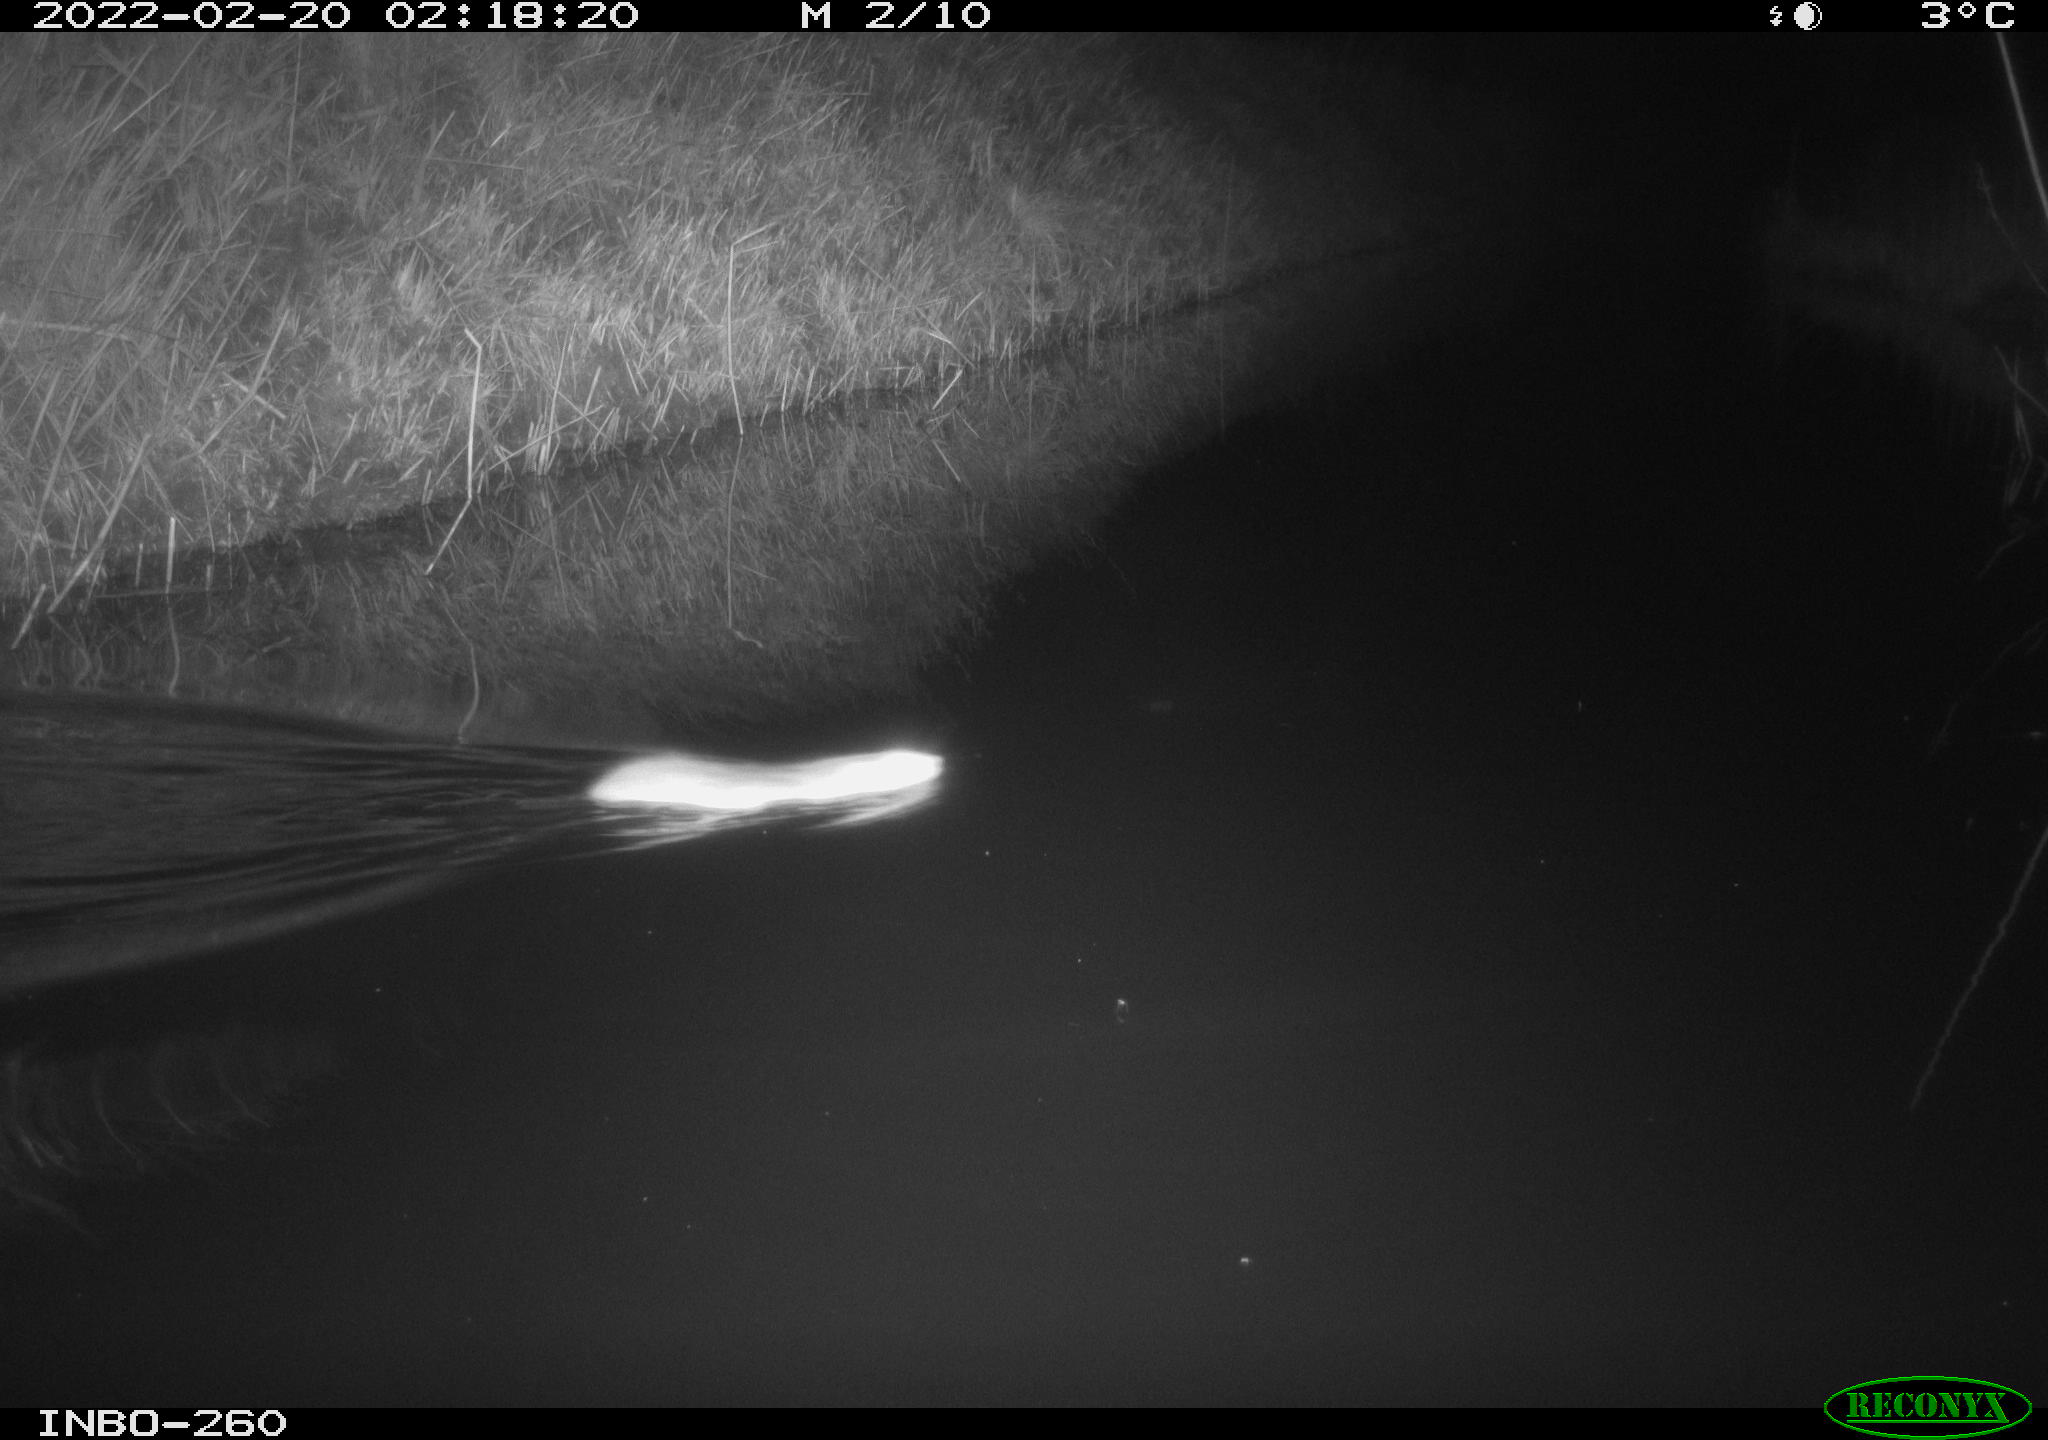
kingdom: Animalia
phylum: Chordata
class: Mammalia
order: Rodentia
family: Muridae
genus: Rattus
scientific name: Rattus norvegicus
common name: Brown rat
